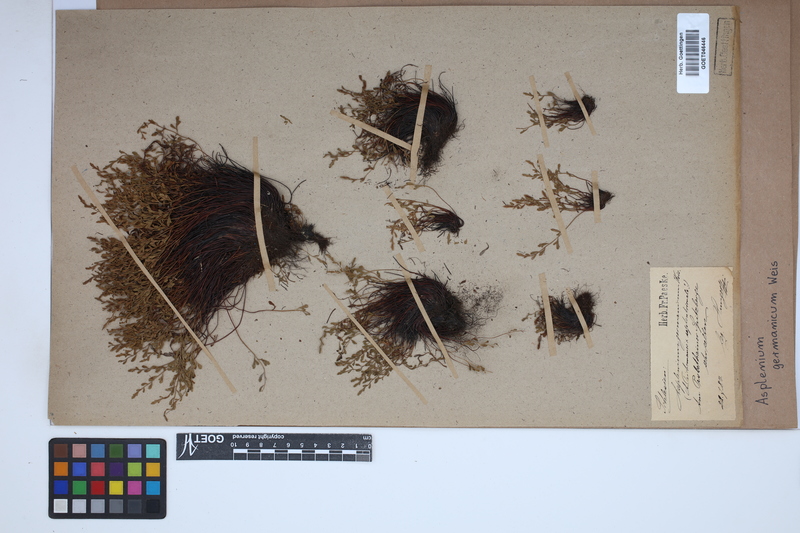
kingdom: Plantae
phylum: Tracheophyta
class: Polypodiopsida
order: Polypodiales
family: Aspleniaceae
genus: Asplenium
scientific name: Asplenium
